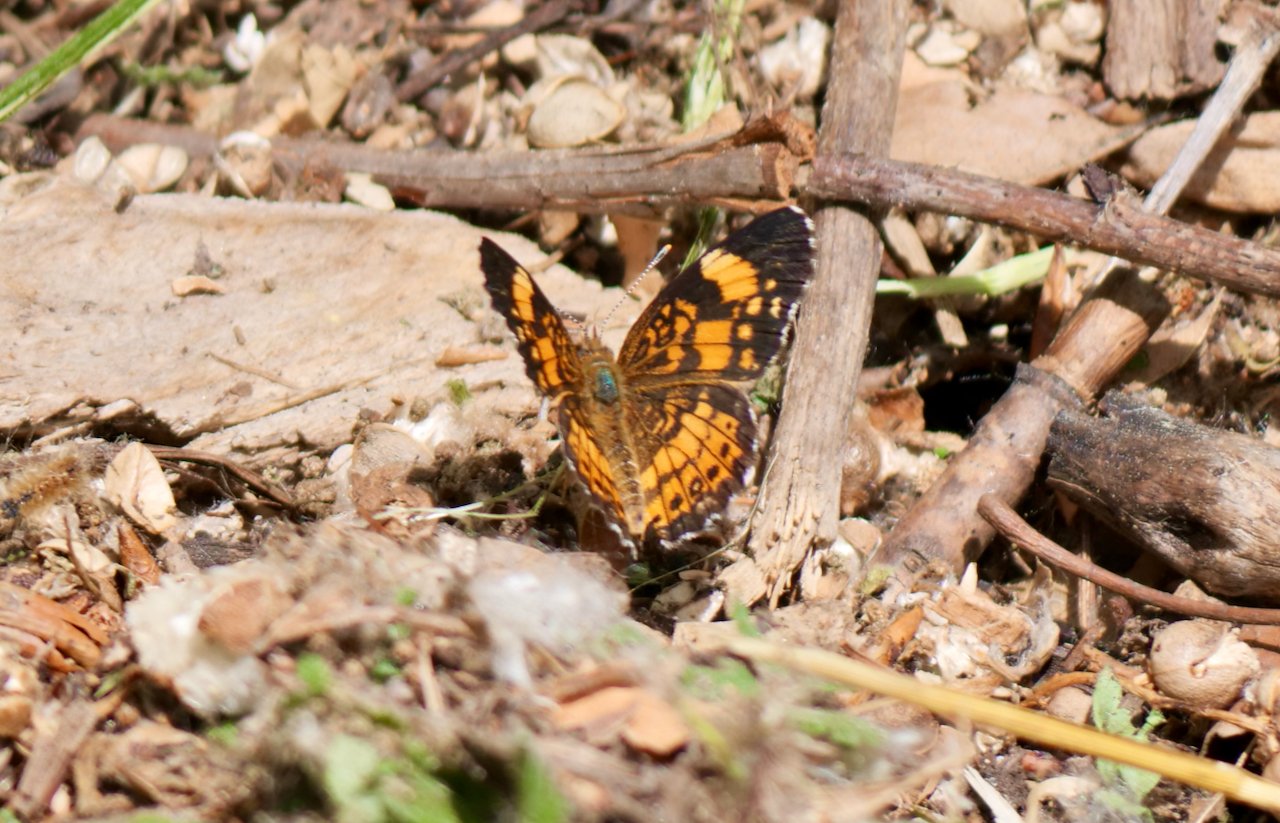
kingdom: Animalia
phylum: Arthropoda
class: Insecta
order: Lepidoptera
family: Nymphalidae
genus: Chlosyne
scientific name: Chlosyne nycteis
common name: Silvery Checkerspot
